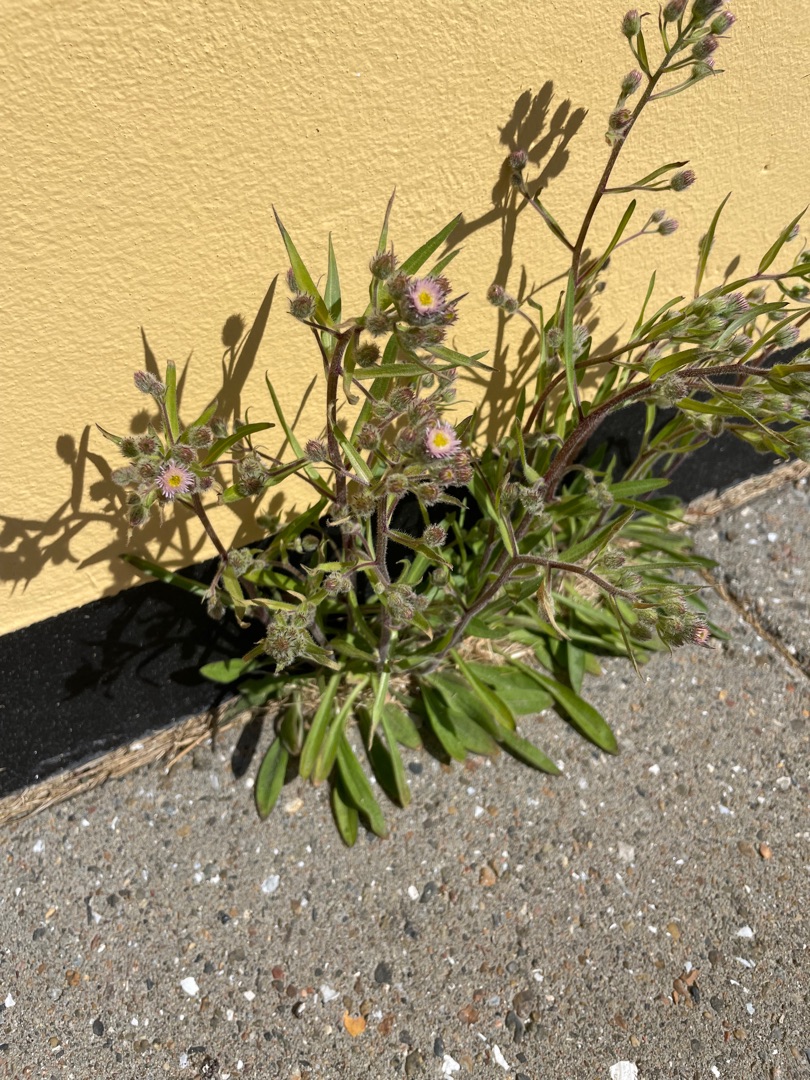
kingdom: Plantae
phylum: Tracheophyta
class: Magnoliopsida
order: Asterales
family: Asteraceae
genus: Erigeron
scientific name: Erigeron acris
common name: Bitter bakkestjerne
